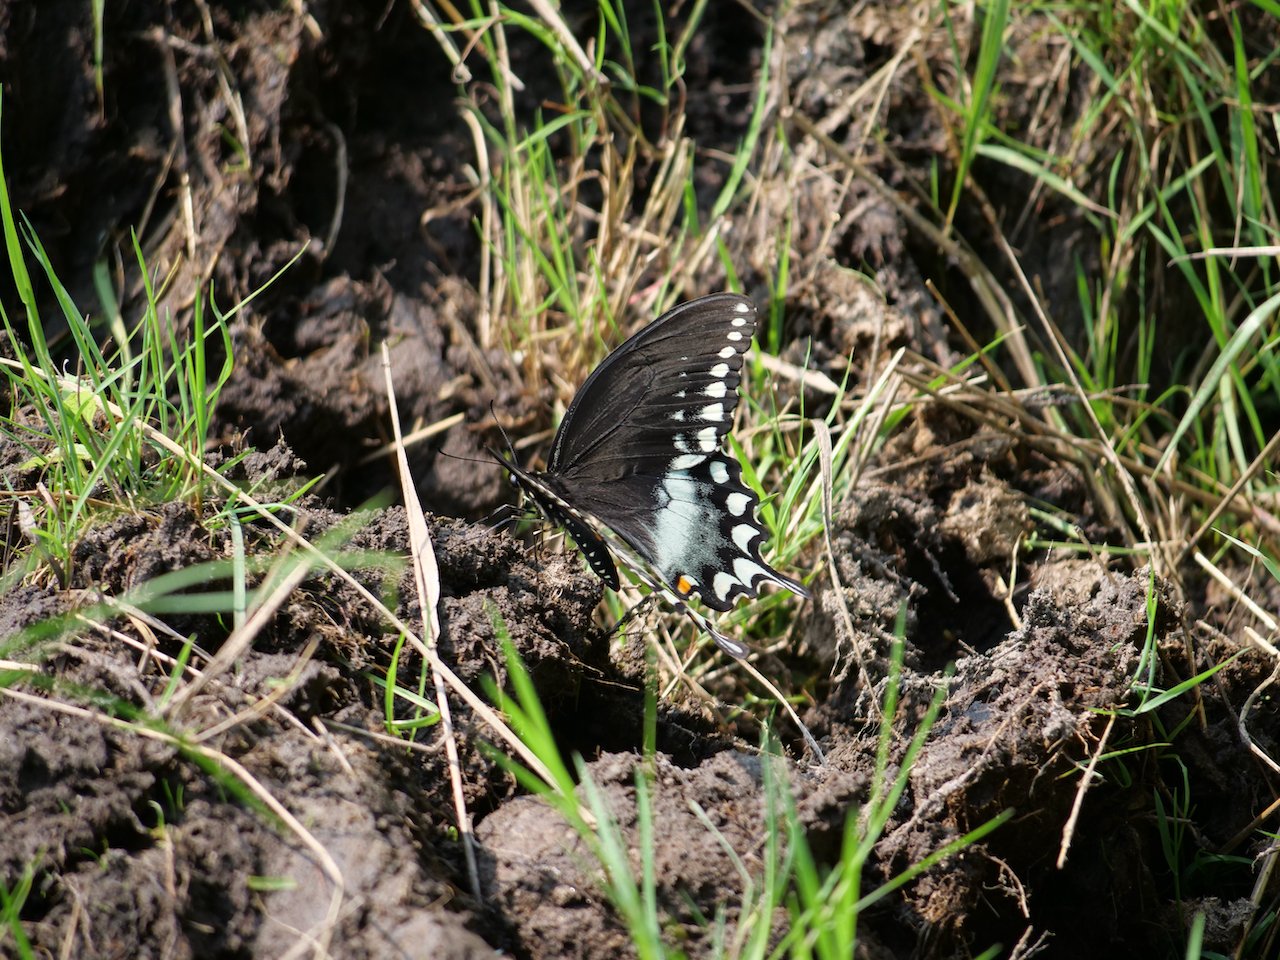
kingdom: Animalia
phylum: Arthropoda
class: Insecta
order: Lepidoptera
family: Papilionidae
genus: Pterourus
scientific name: Pterourus troilus
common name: Spicebush Swallowtail
